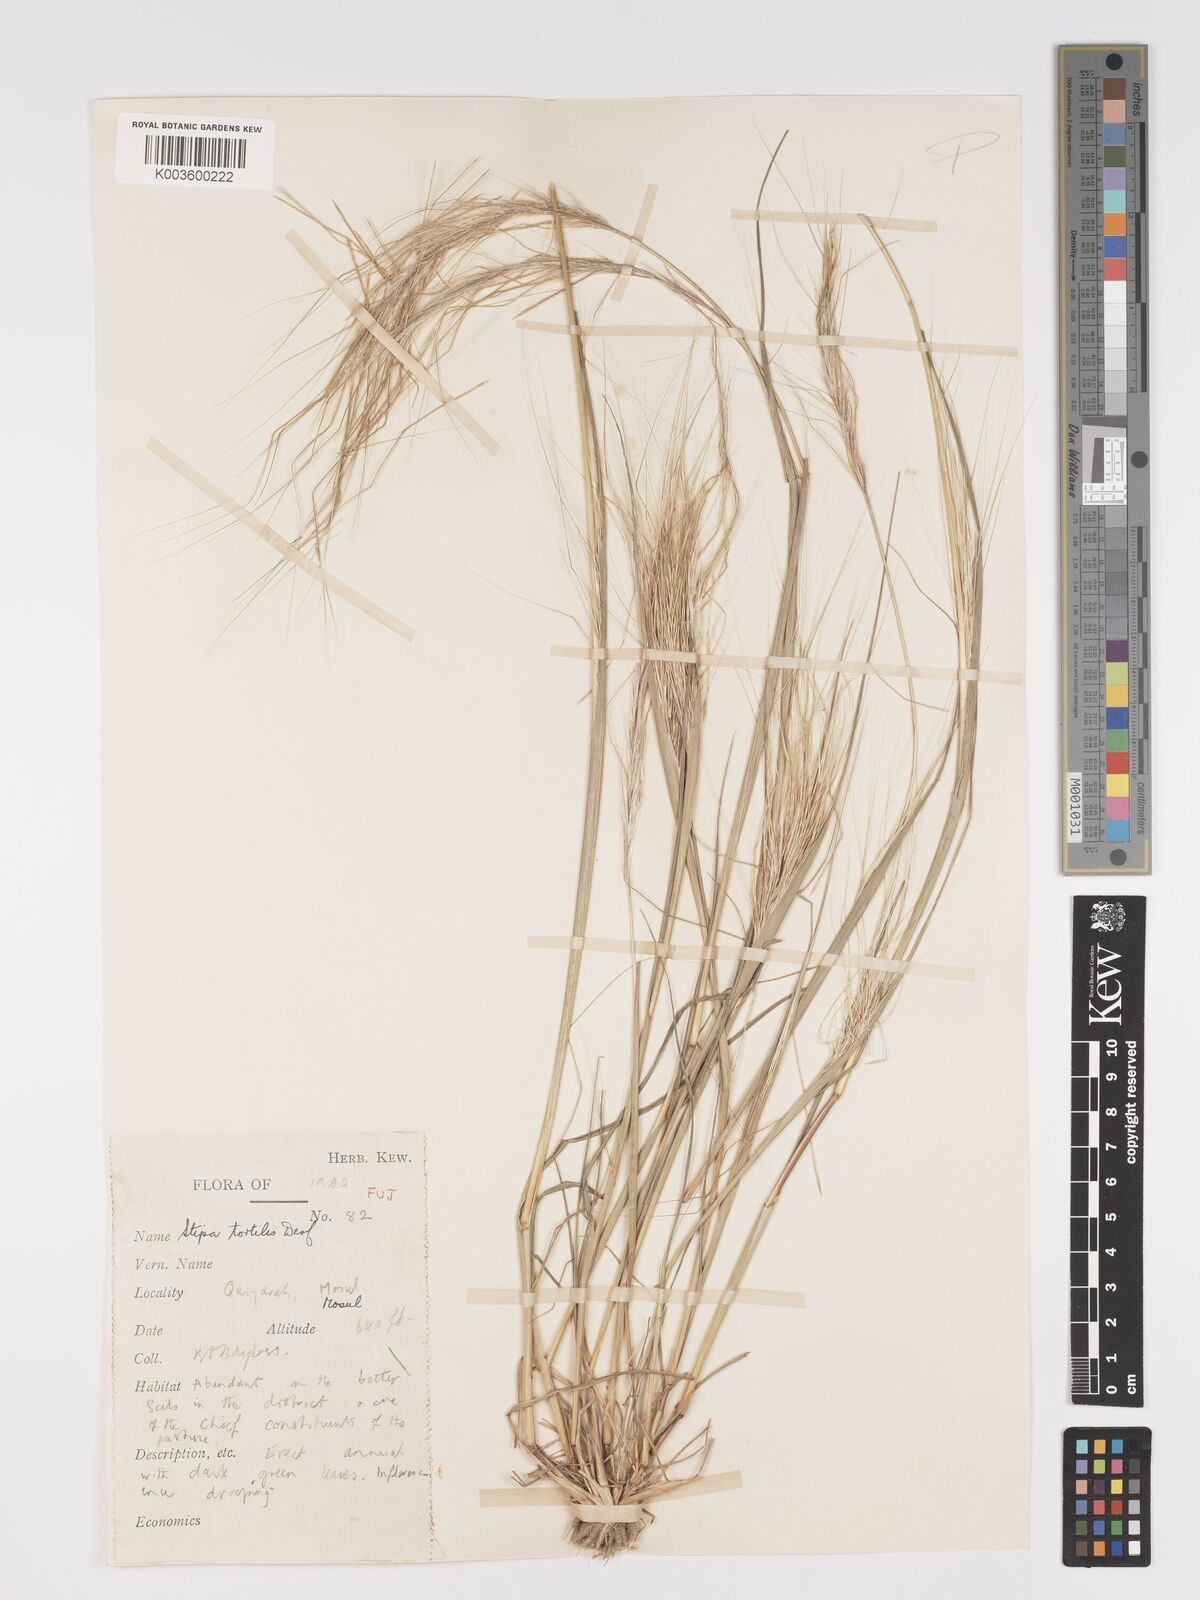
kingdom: Plantae
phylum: Tracheophyta
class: Liliopsida
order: Poales
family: Poaceae
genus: Stipellula
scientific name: Stipellula capensis
